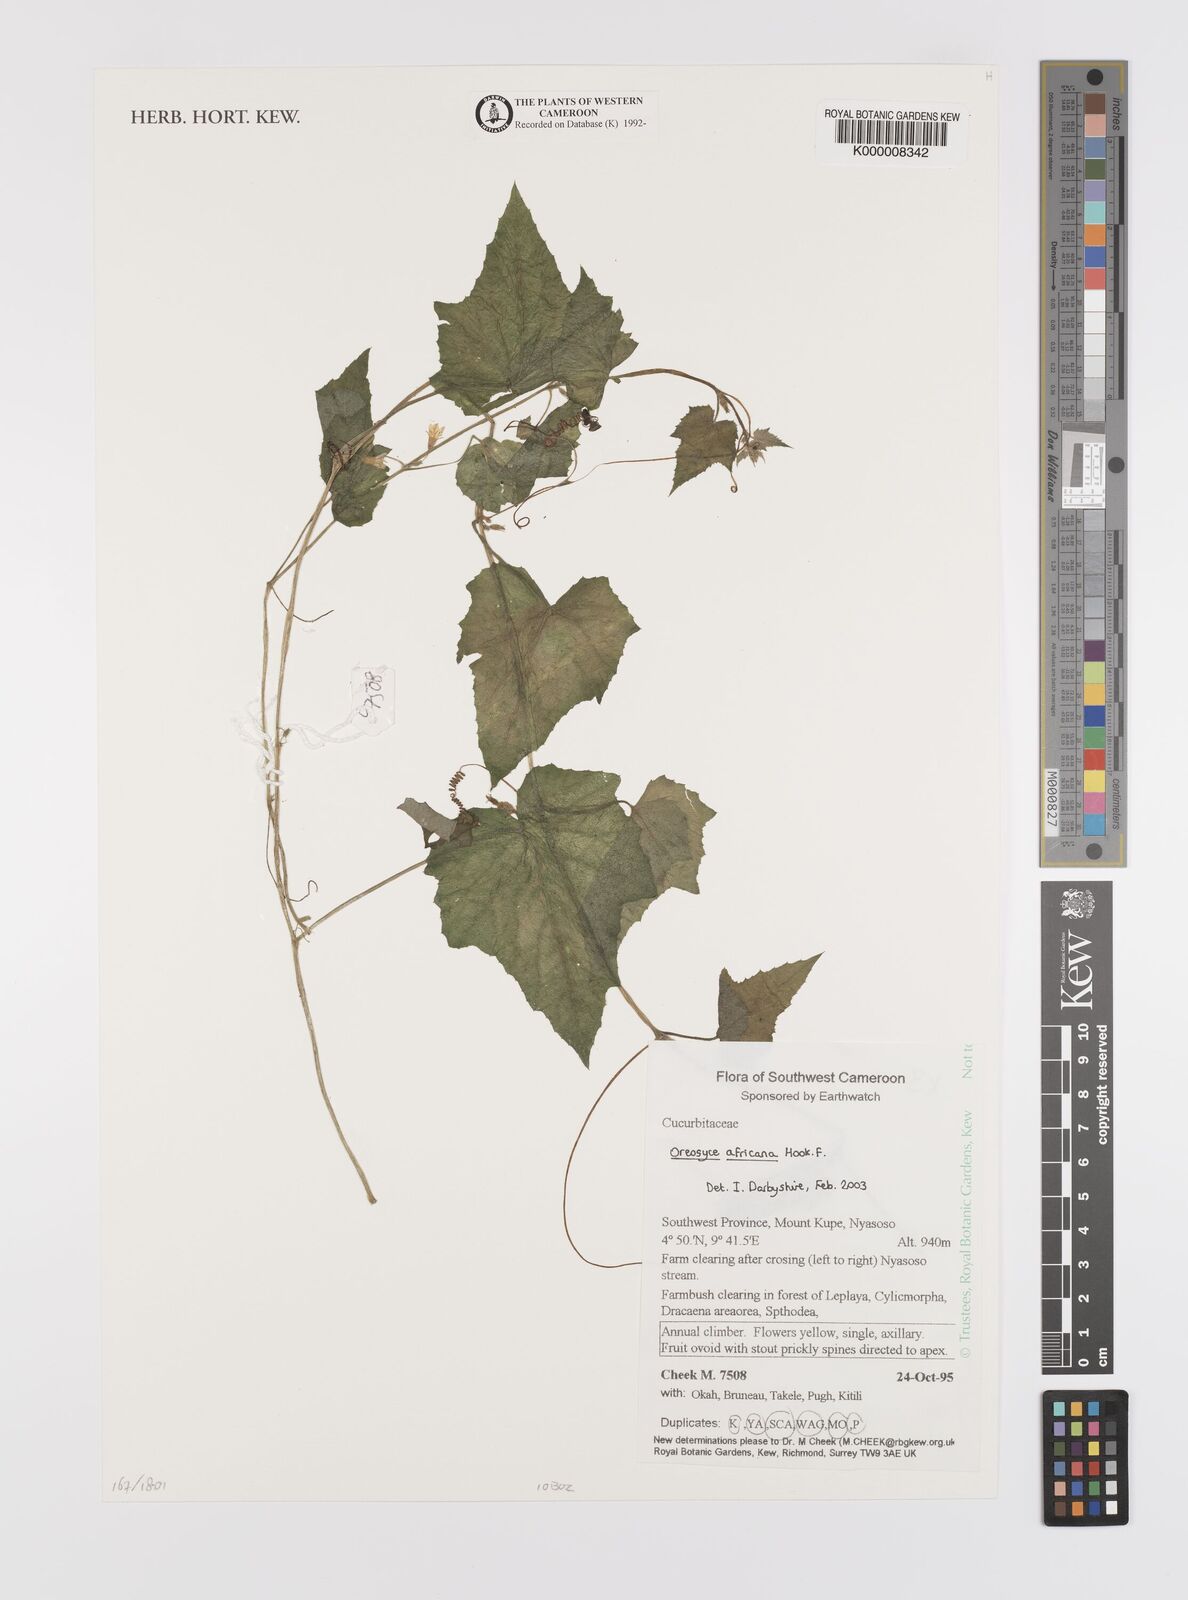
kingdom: Plantae
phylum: Tracheophyta
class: Magnoliopsida
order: Cucurbitales
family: Cucurbitaceae
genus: Cucumis
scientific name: Cucumis oreosyce
